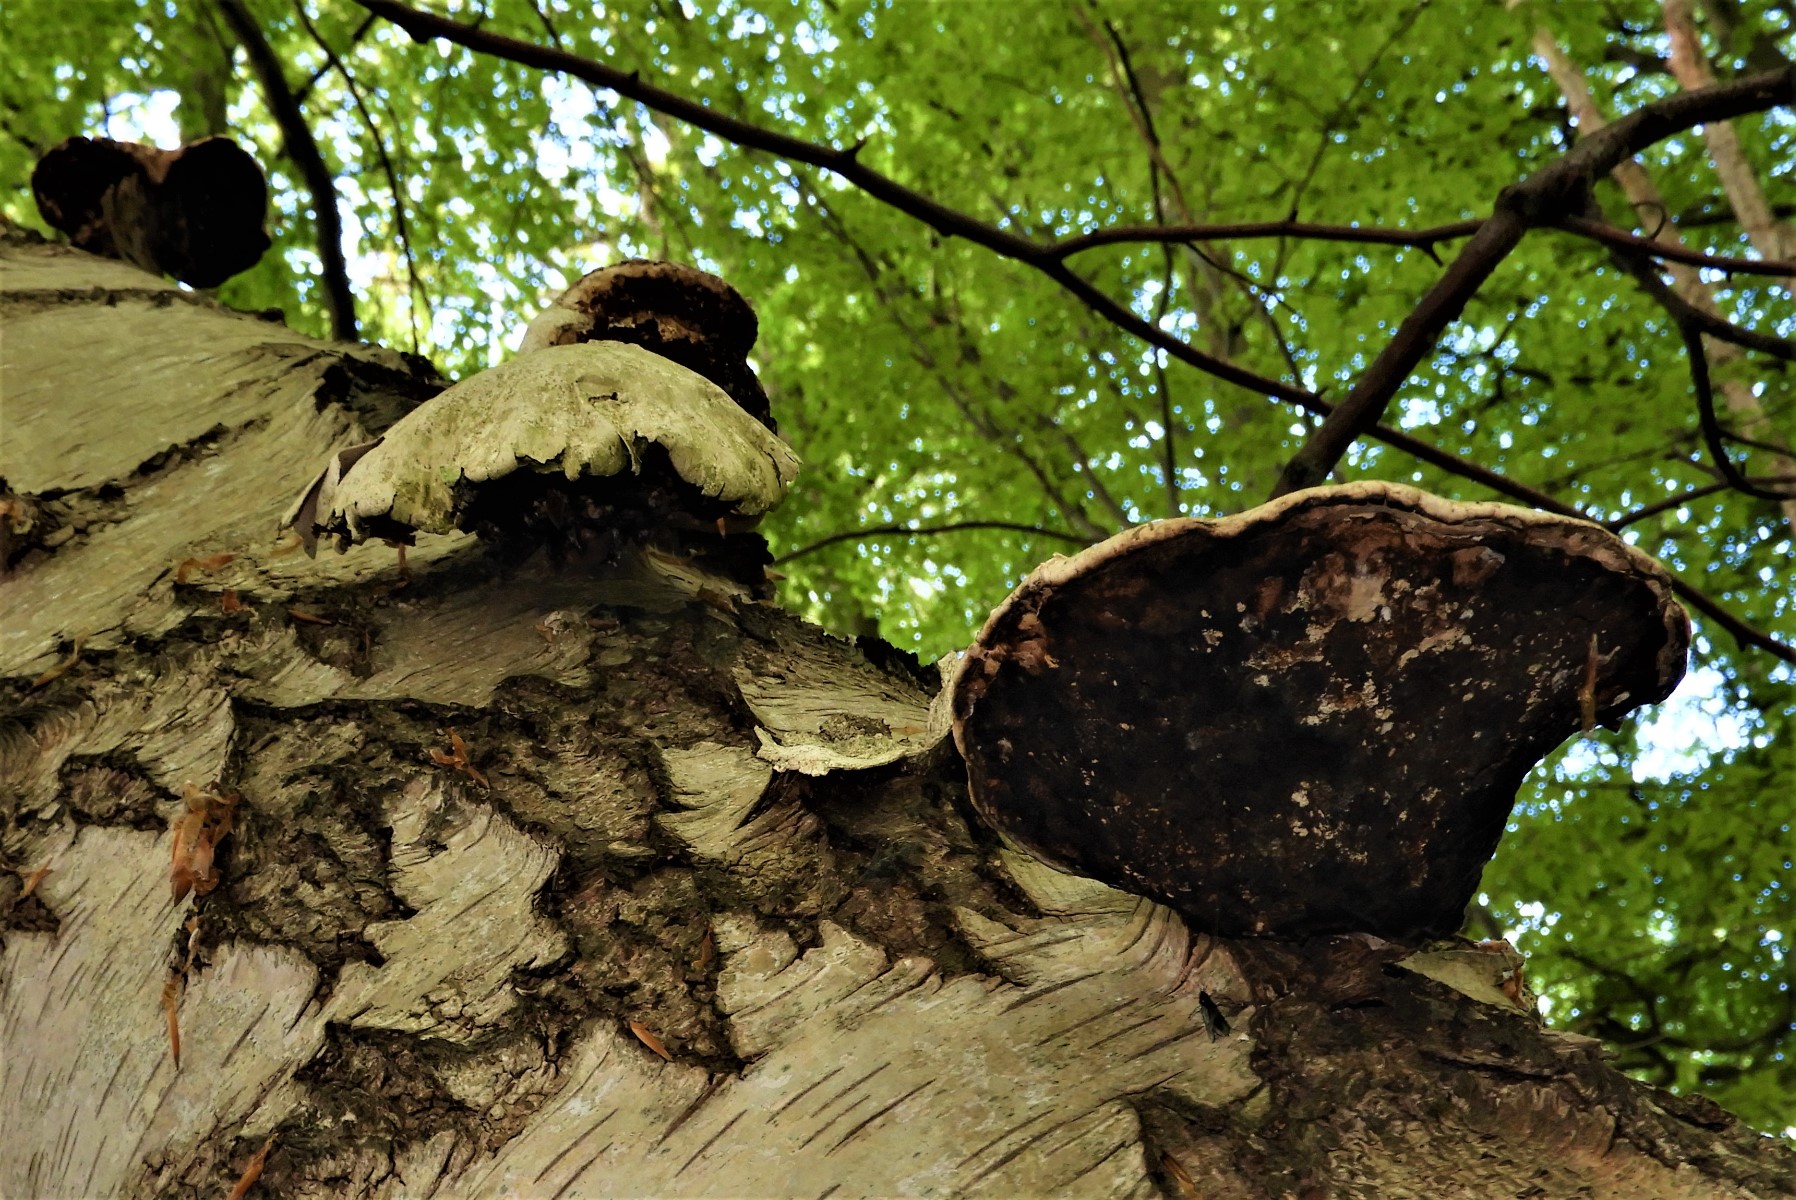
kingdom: Fungi
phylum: Basidiomycota
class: Agaricomycetes
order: Polyporales
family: Fomitopsidaceae
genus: Fomitopsis
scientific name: Fomitopsis betulina
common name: birkeporesvamp
